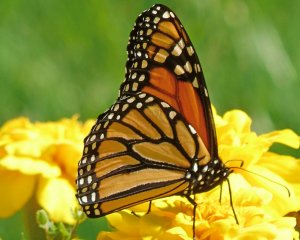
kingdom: Animalia
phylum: Arthropoda
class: Insecta
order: Lepidoptera
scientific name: Lepidoptera
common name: Butterflies
